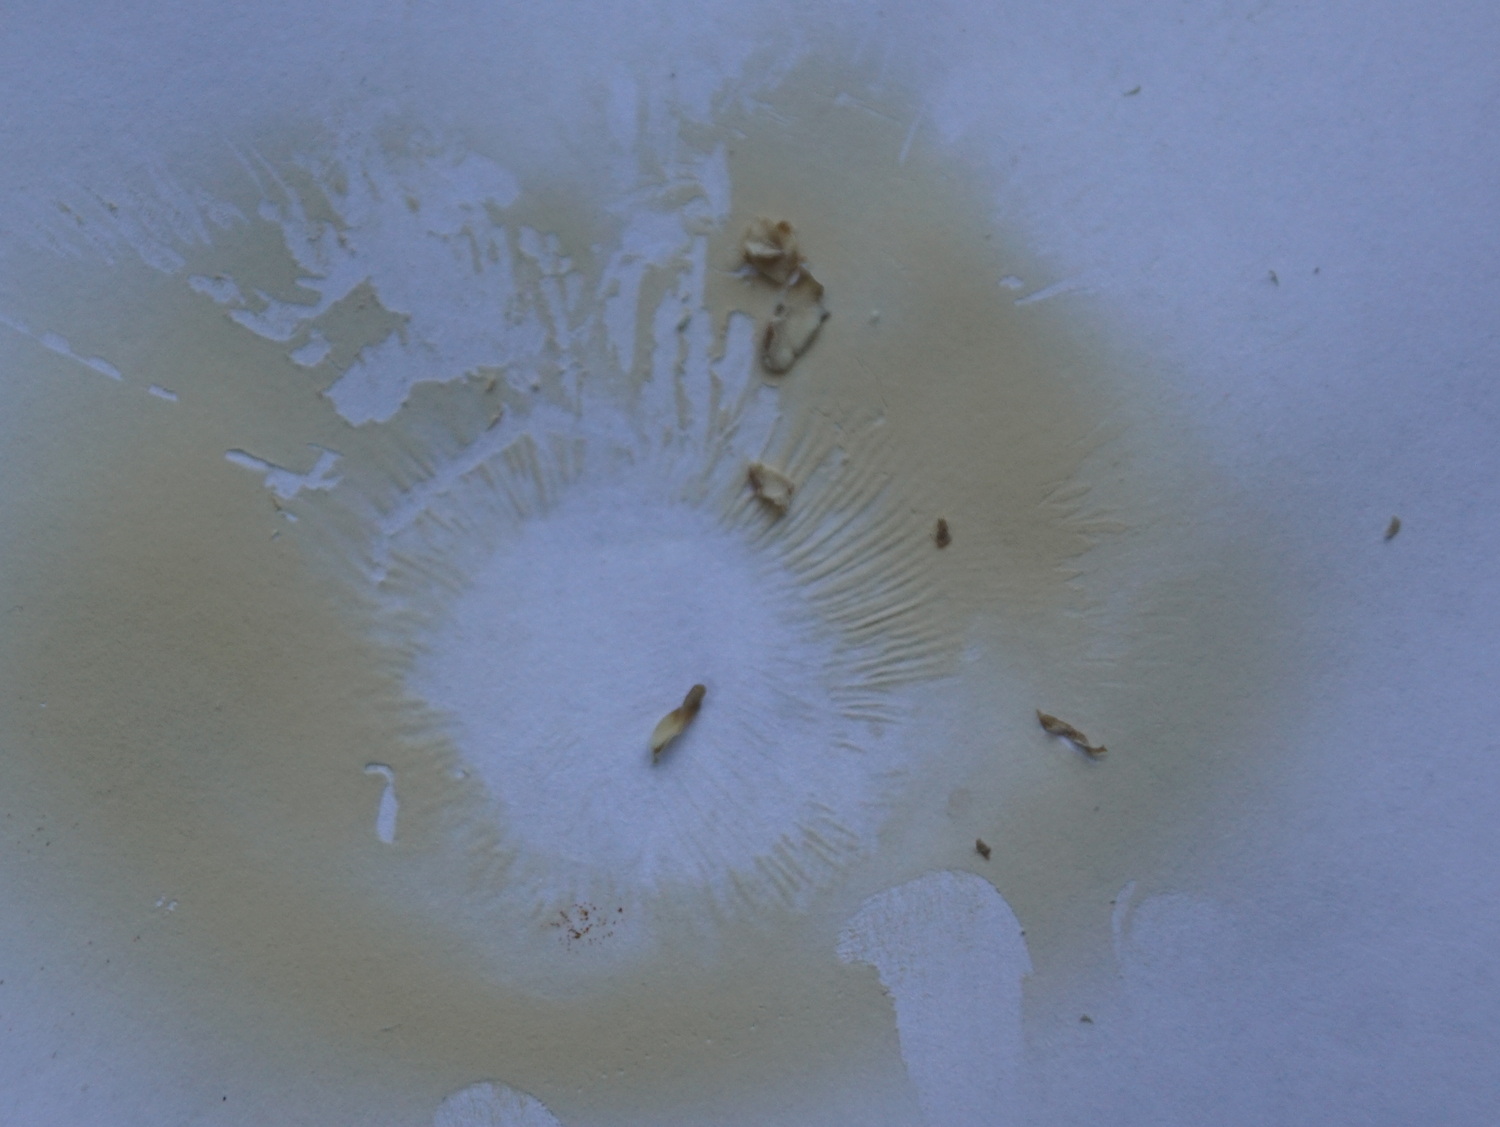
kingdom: Fungi
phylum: Basidiomycota
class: Agaricomycetes
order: Russulales
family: Russulaceae
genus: Russula
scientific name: Russula vinosa
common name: vinrød skørhat
